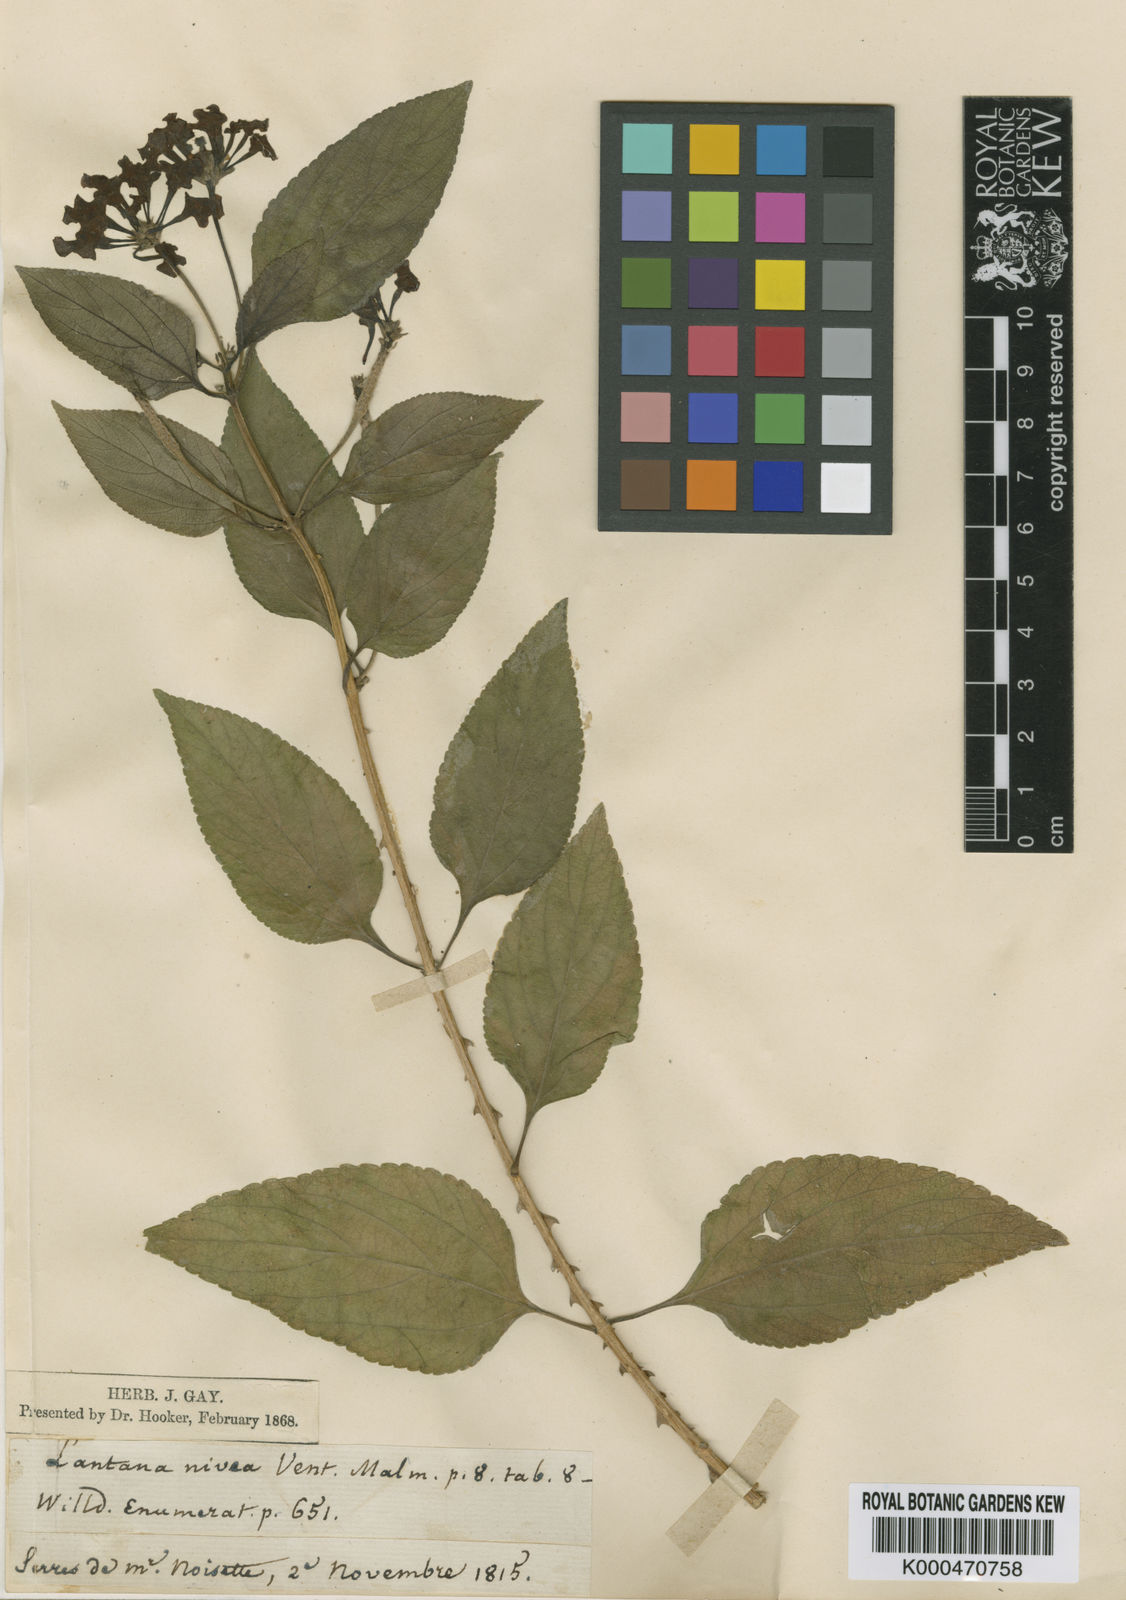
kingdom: Plantae
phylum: Tracheophyta
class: Magnoliopsida
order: Lamiales
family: Verbenaceae
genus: Lantana
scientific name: Lantana nivea
